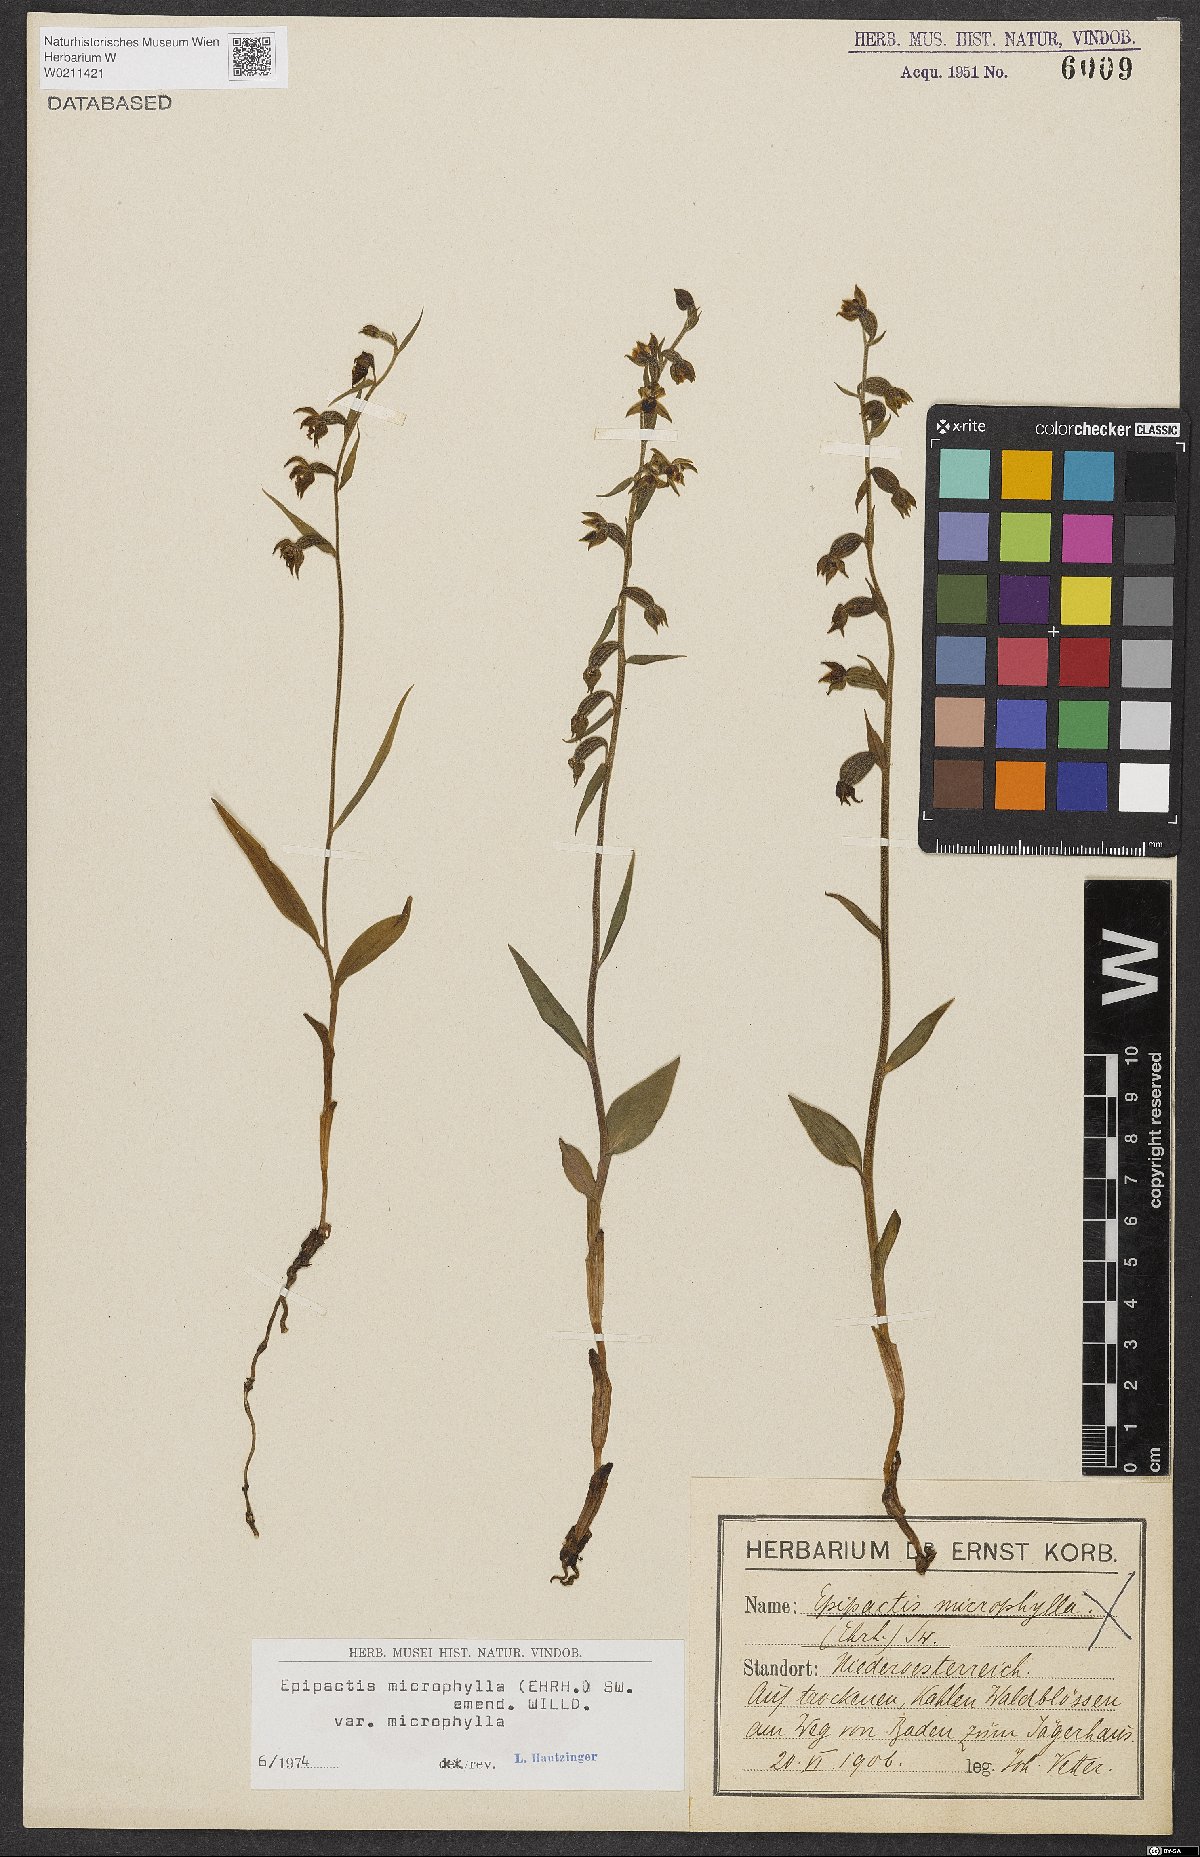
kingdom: Plantae
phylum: Tracheophyta
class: Liliopsida
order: Asparagales
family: Orchidaceae
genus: Epipactis
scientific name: Epipactis microphylla
